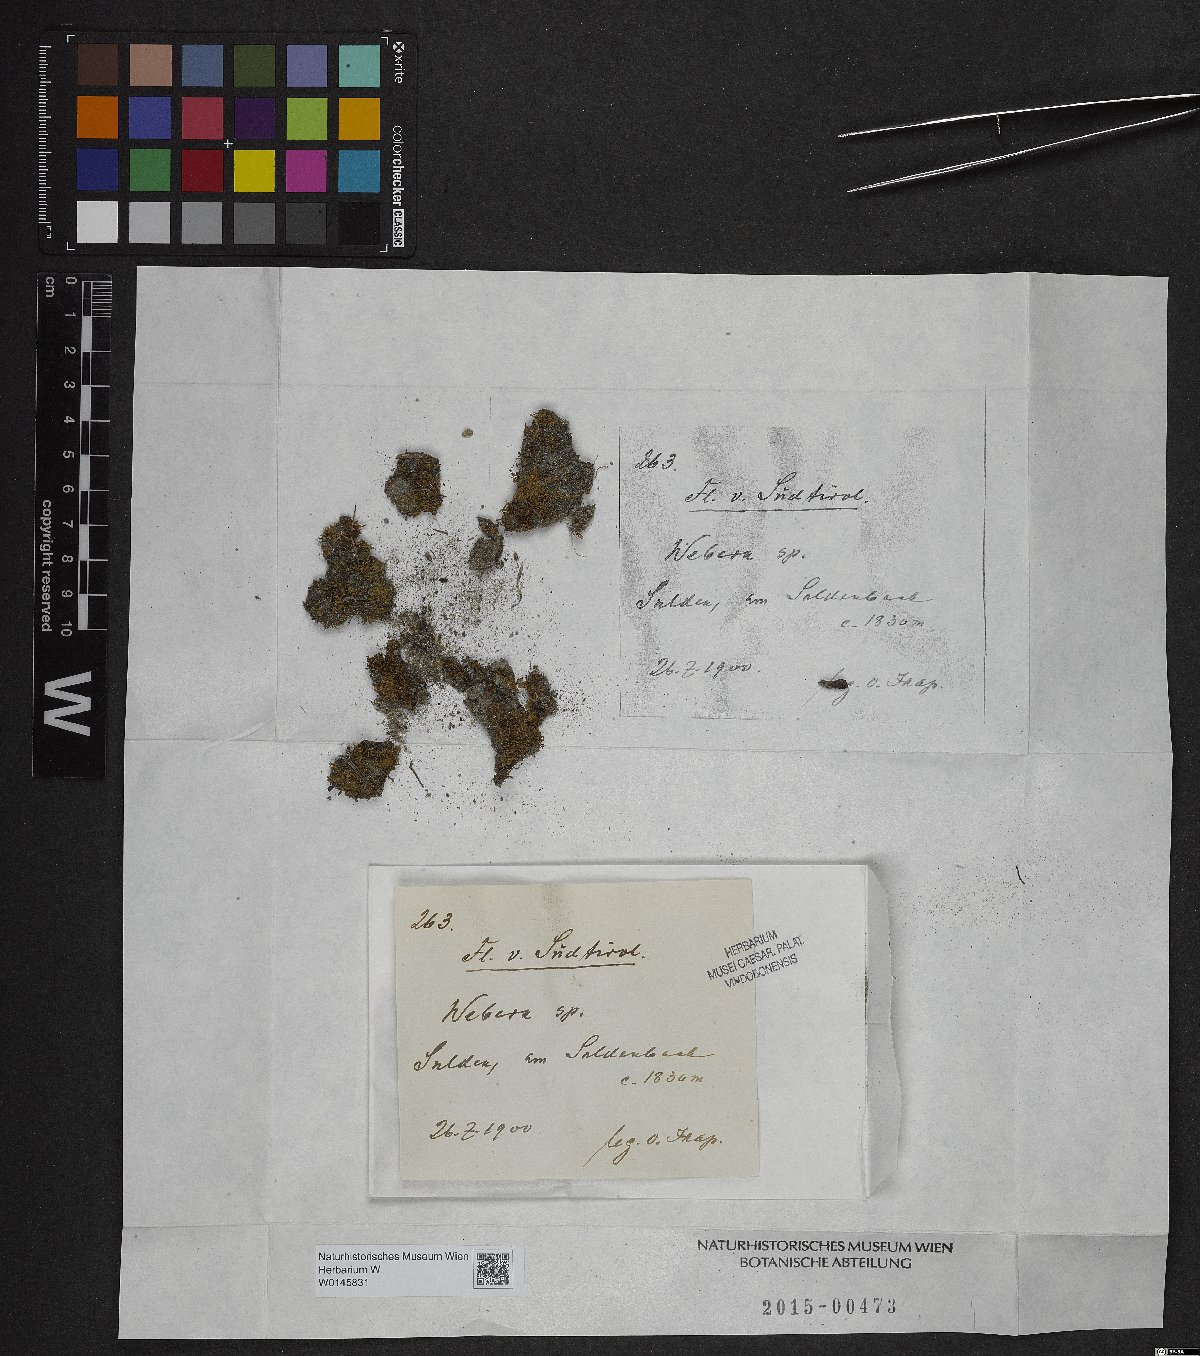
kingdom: Plantae
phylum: Tracheophyta
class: Magnoliopsida
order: Gentianales
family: Rubiaceae
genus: Webera
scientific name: Webera
